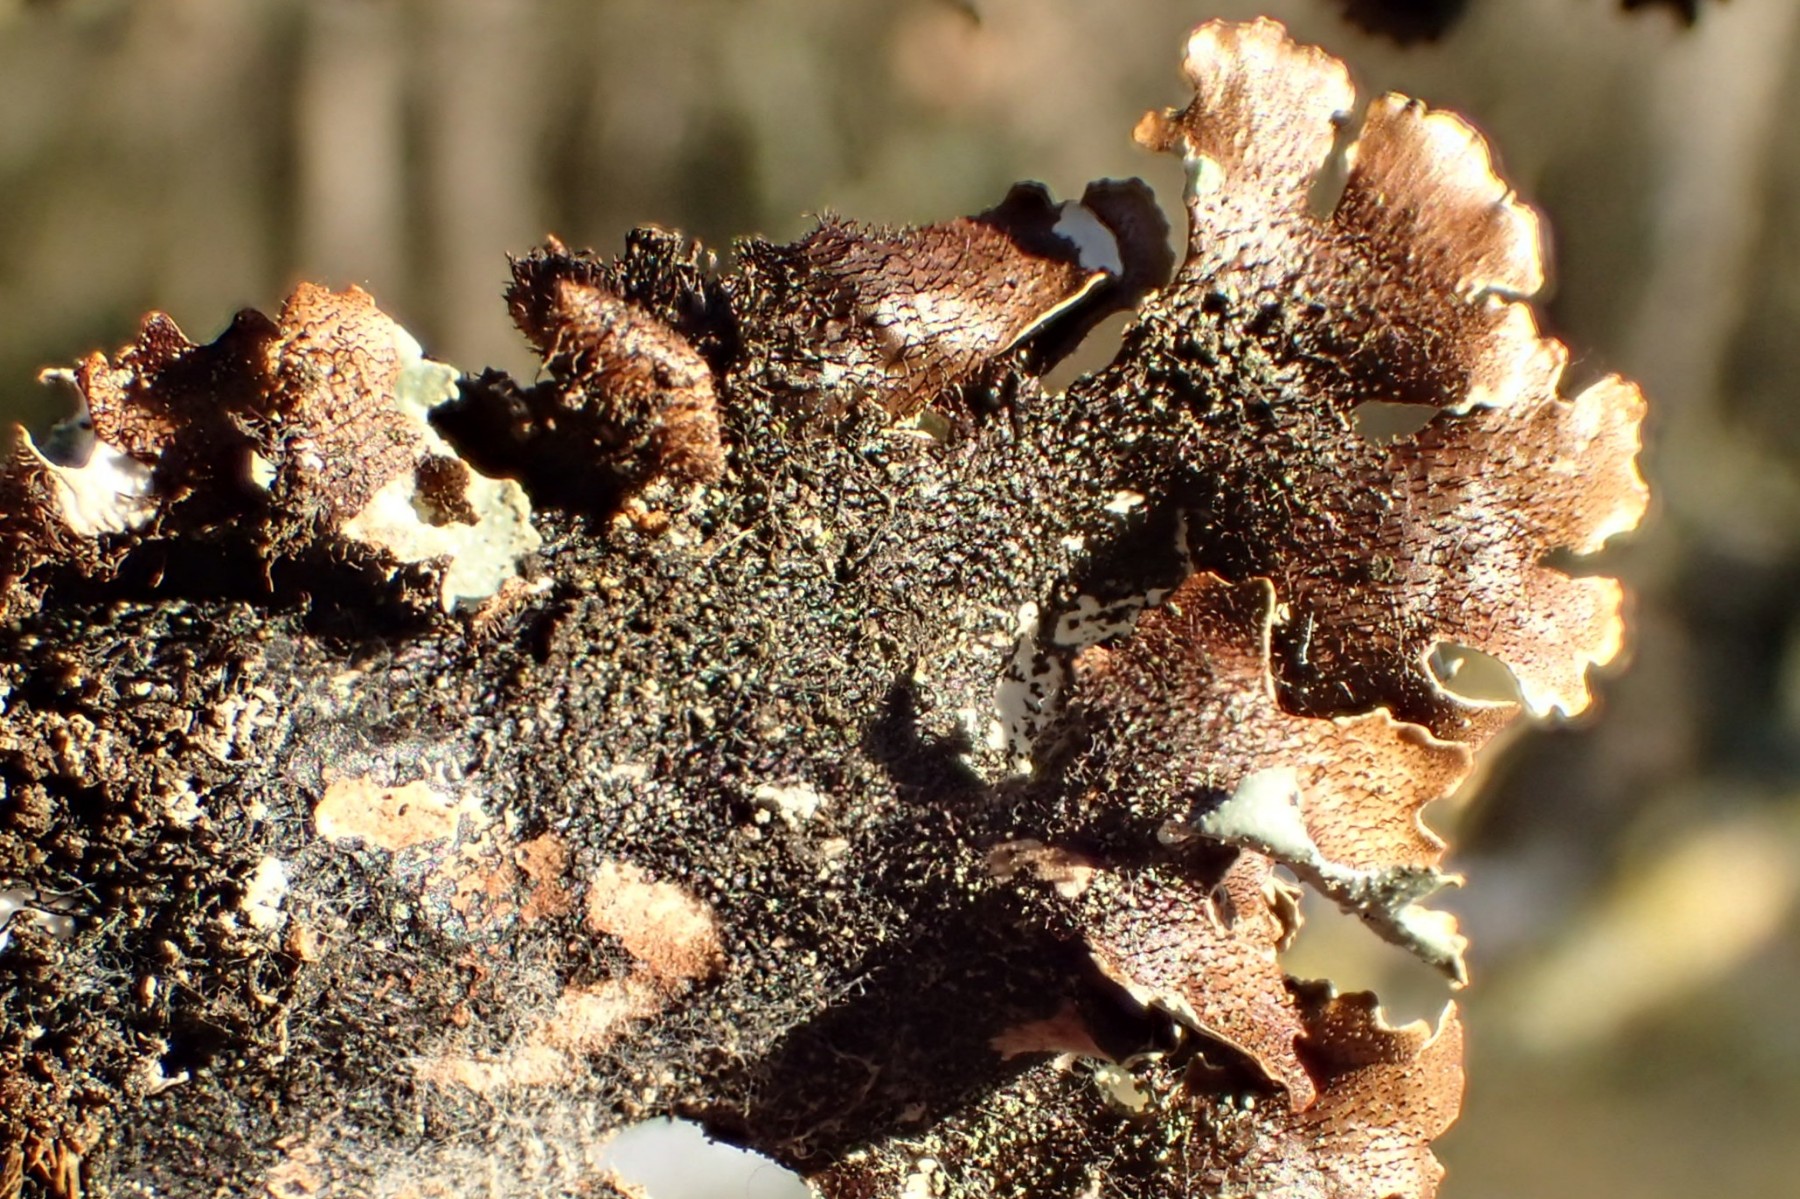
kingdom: Fungi
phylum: Ascomycota
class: Lecanoromycetes
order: Lecanorales
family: Parmeliaceae
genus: Parmelia
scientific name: Parmelia submontana
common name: langlobet skållav
